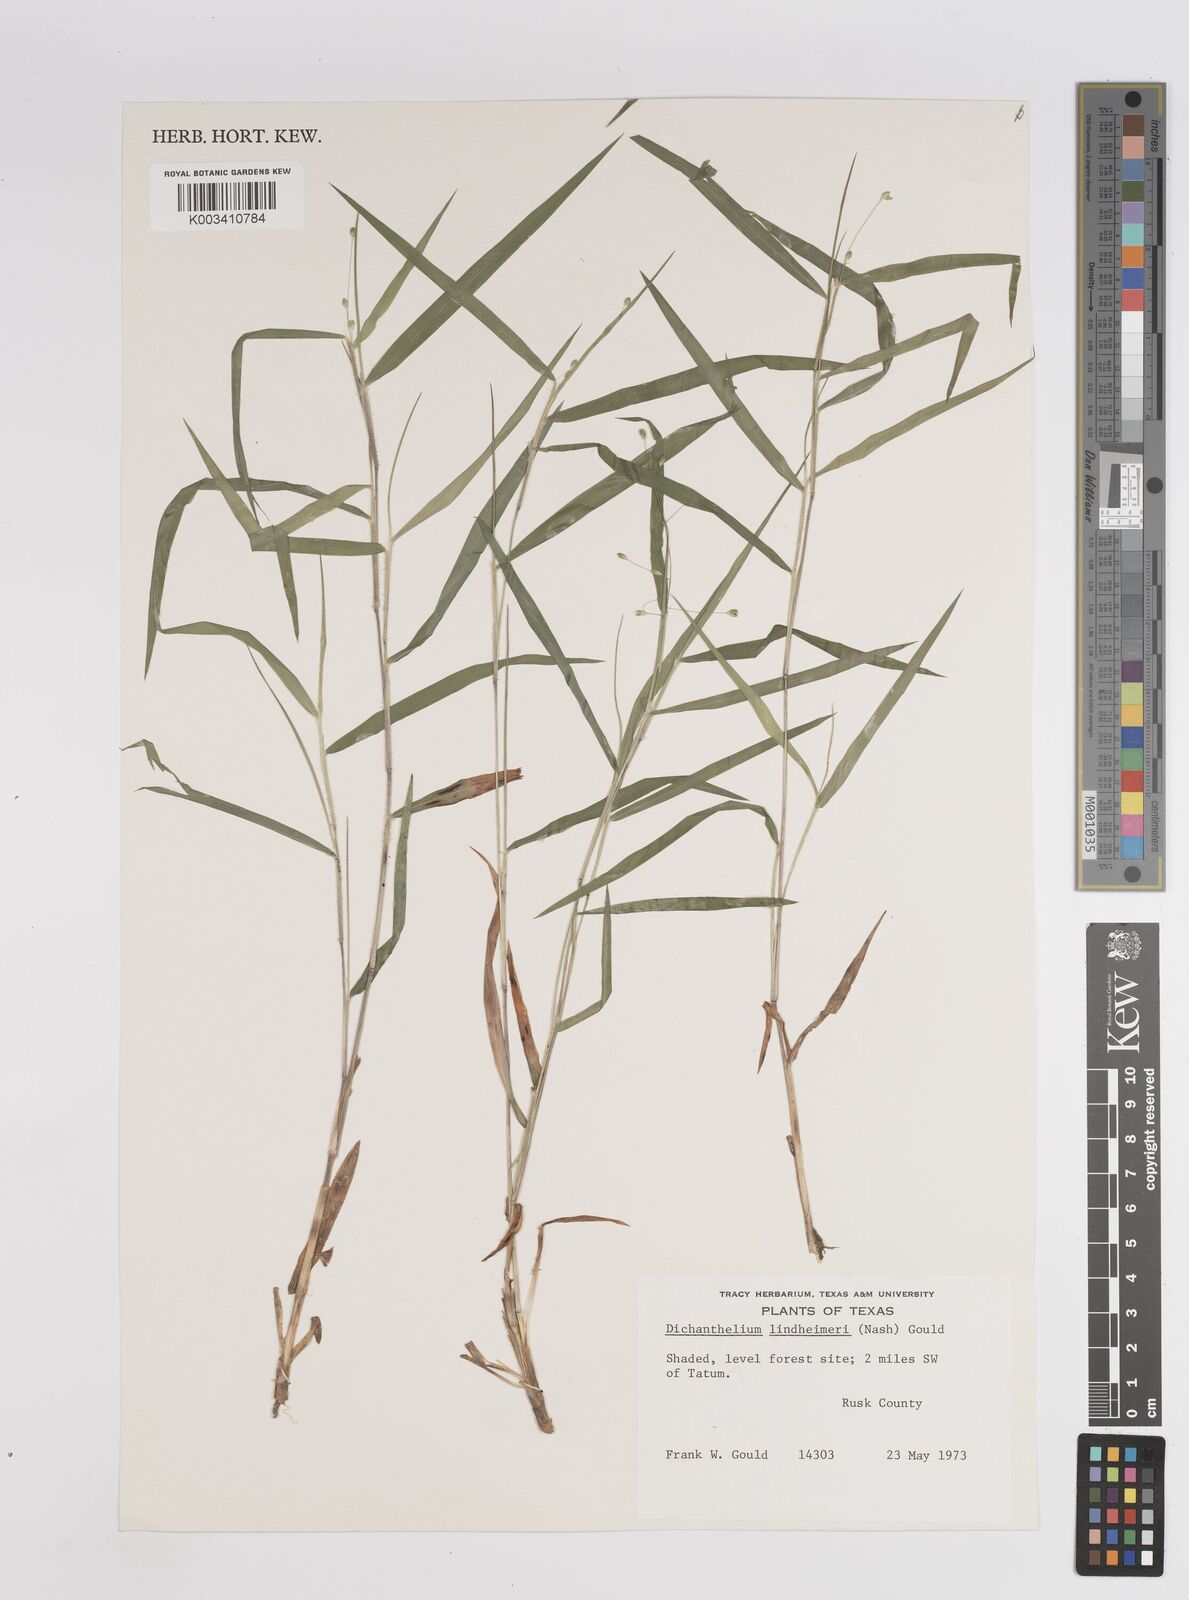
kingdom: Plantae
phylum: Tracheophyta
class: Liliopsida
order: Poales
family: Poaceae
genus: Dichanthelium
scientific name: Dichanthelium acuminatum
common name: Hairy panic grass
